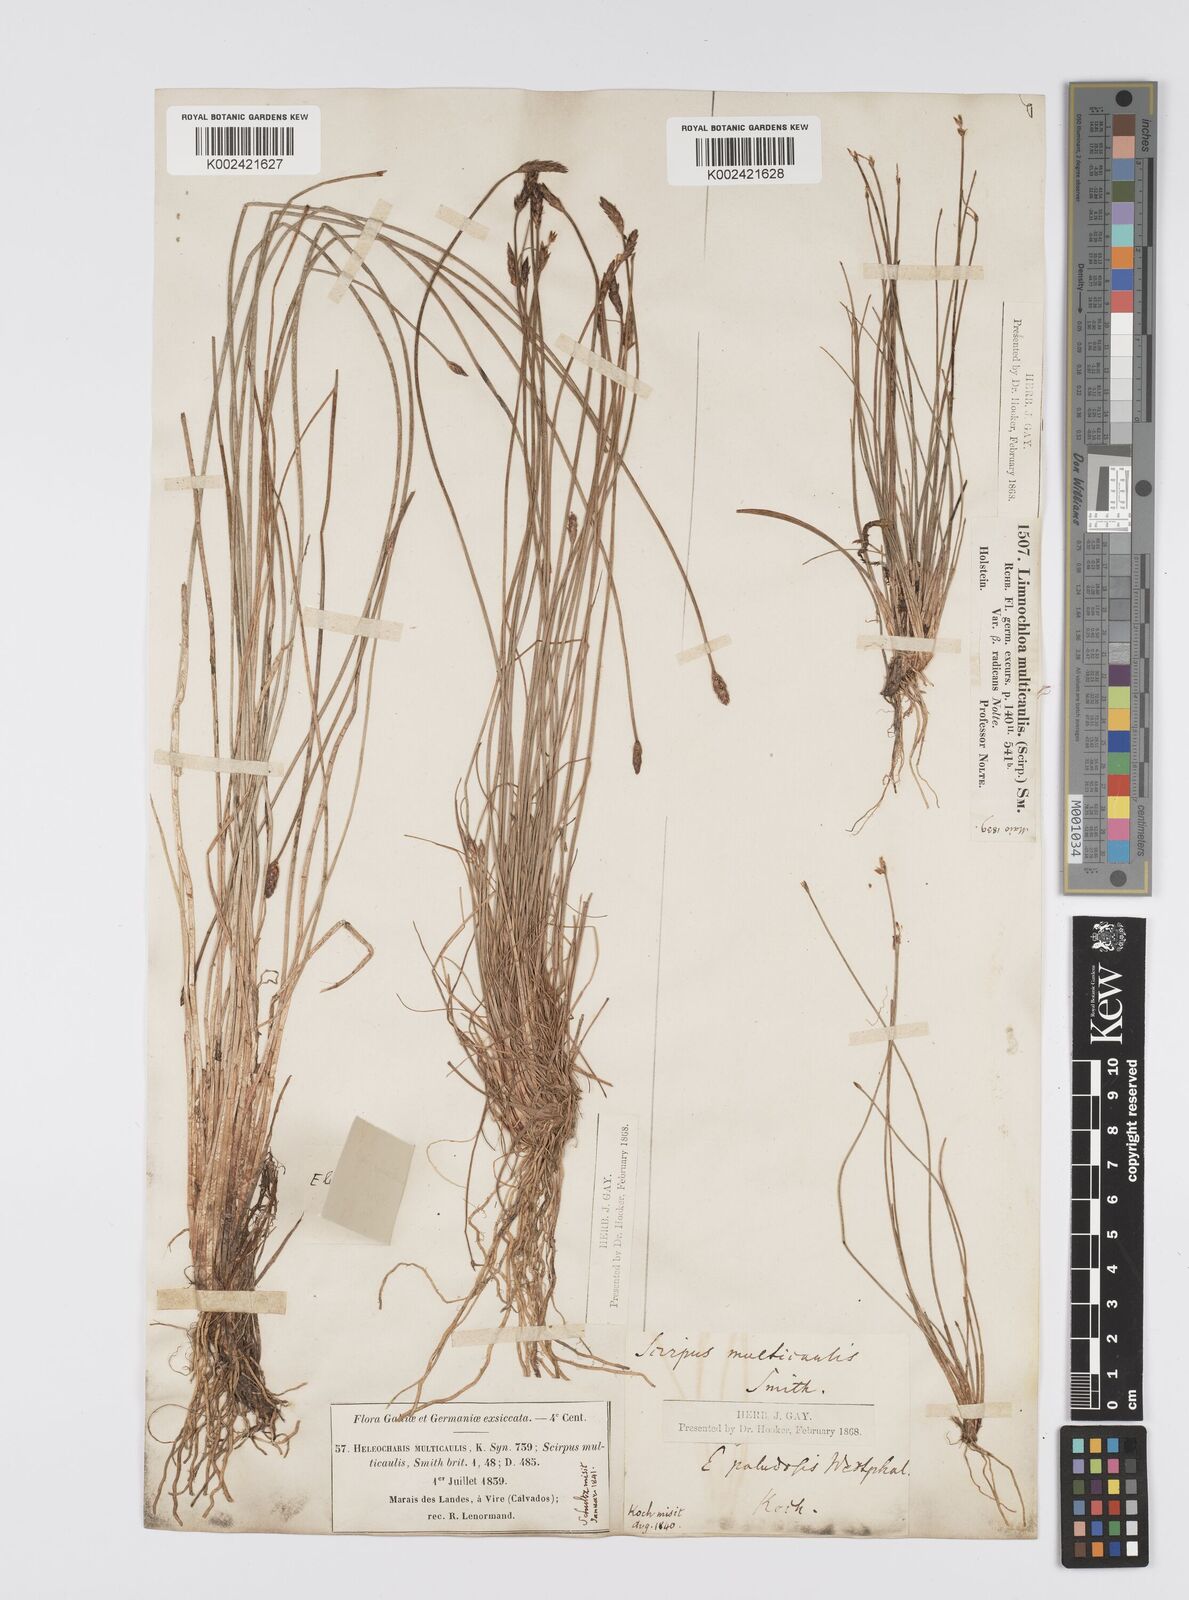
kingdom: Plantae
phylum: Tracheophyta
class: Liliopsida
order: Poales
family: Cyperaceae
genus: Eleocharis
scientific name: Eleocharis multicaulis
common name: Many-stalked spike-rush
